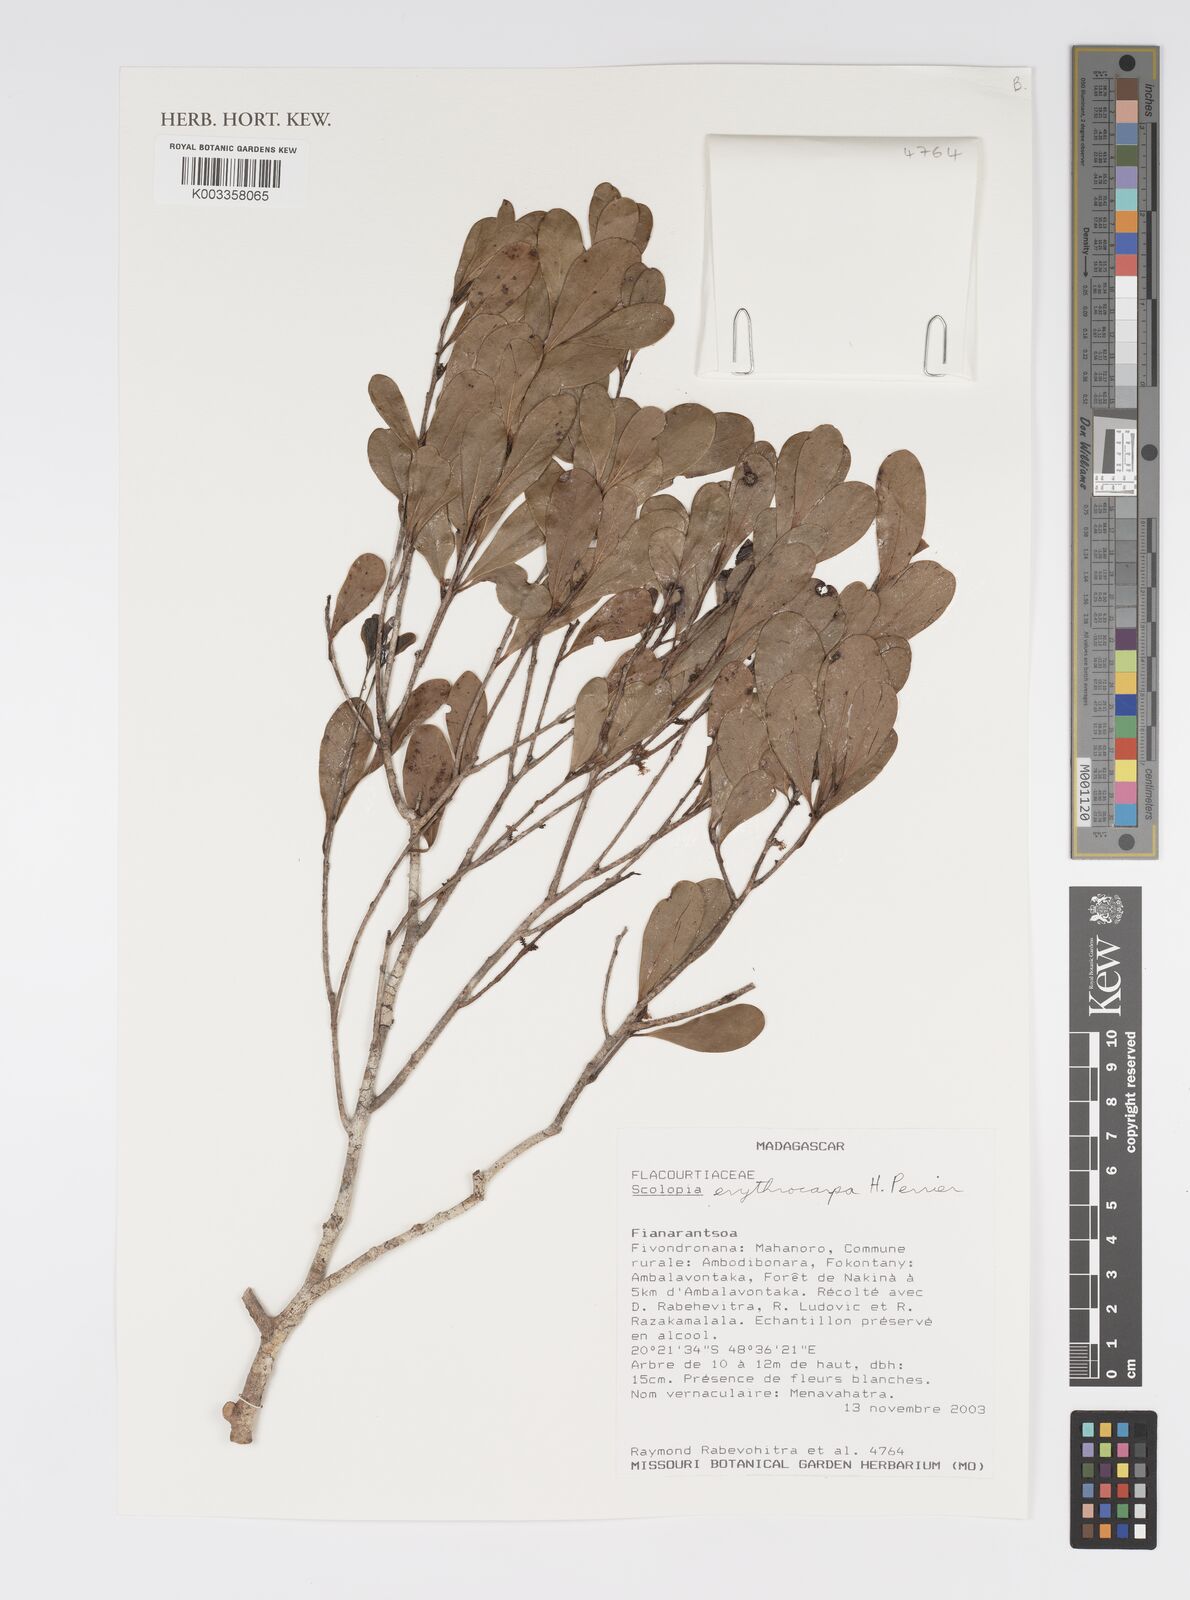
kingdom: Plantae
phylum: Tracheophyta
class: Magnoliopsida
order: Malpighiales
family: Salicaceae
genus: Scolopia
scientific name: Scolopia erythrocarpa
